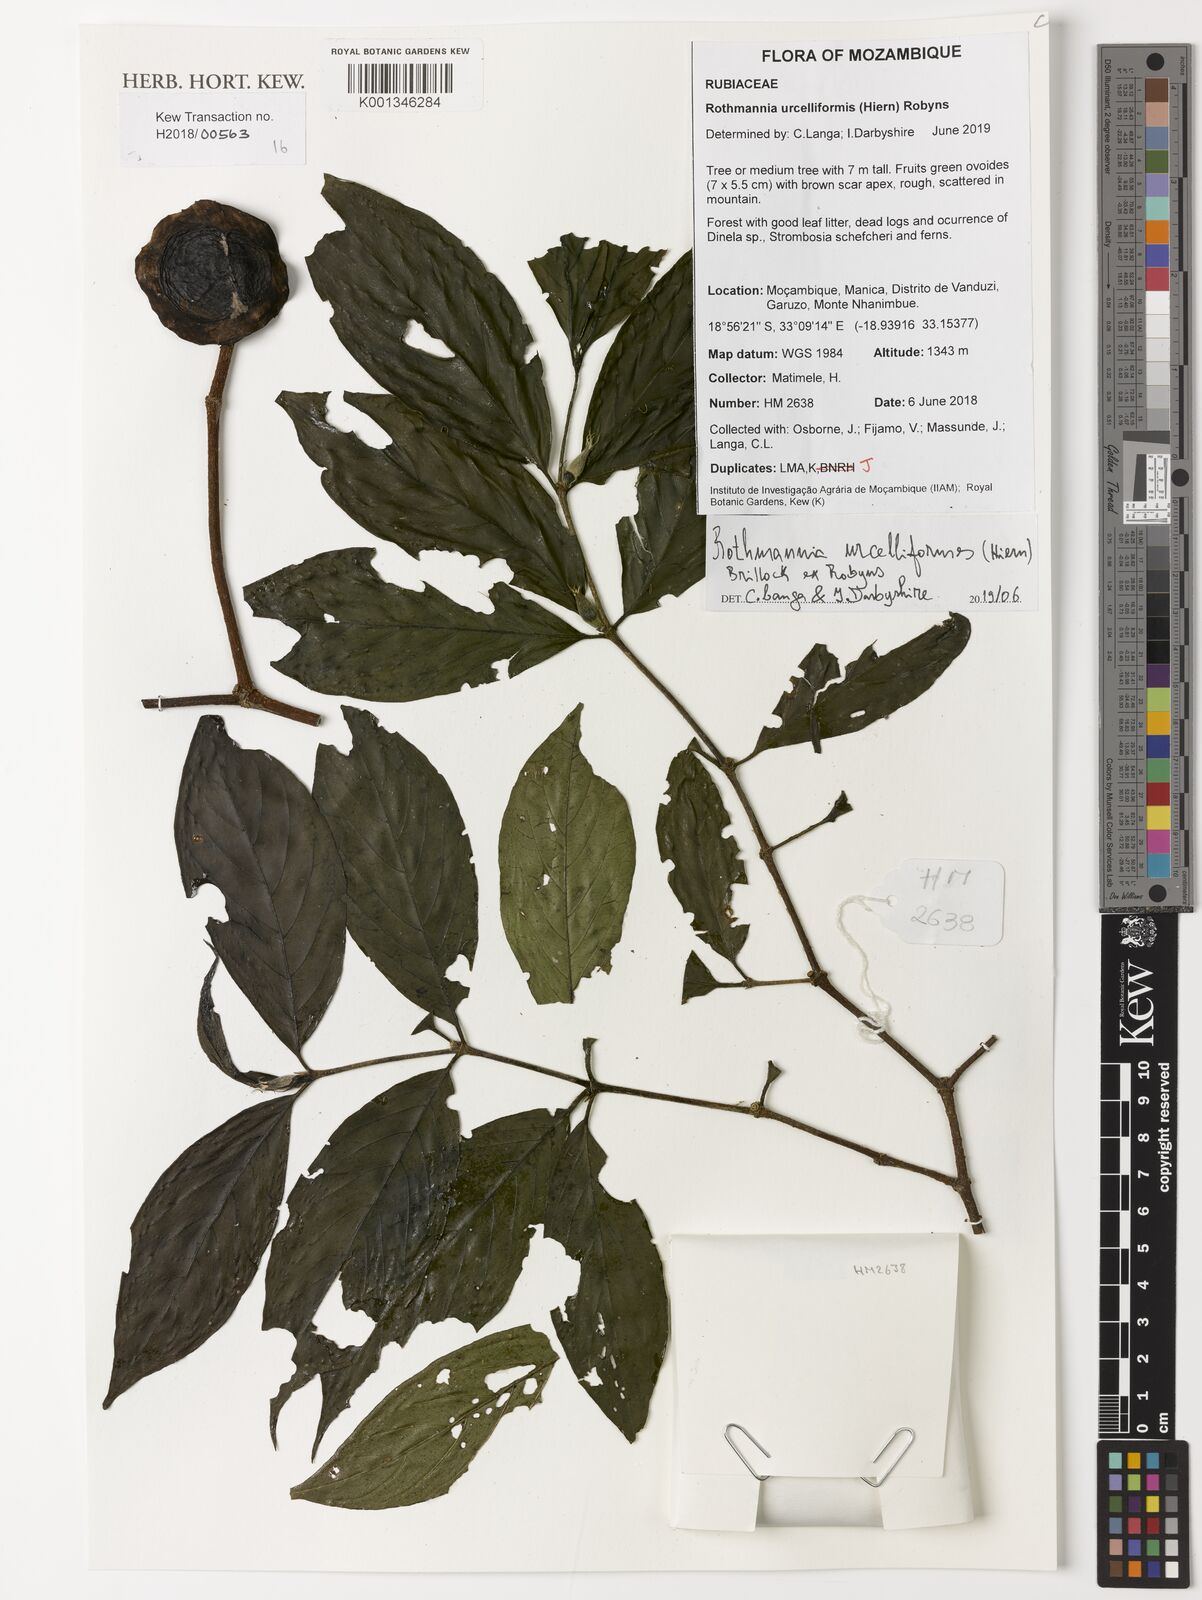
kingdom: Plantae
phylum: Tracheophyta
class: Magnoliopsida
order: Gentianales
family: Rubiaceae
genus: Rothmannia
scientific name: Rothmannia urcelliformis
